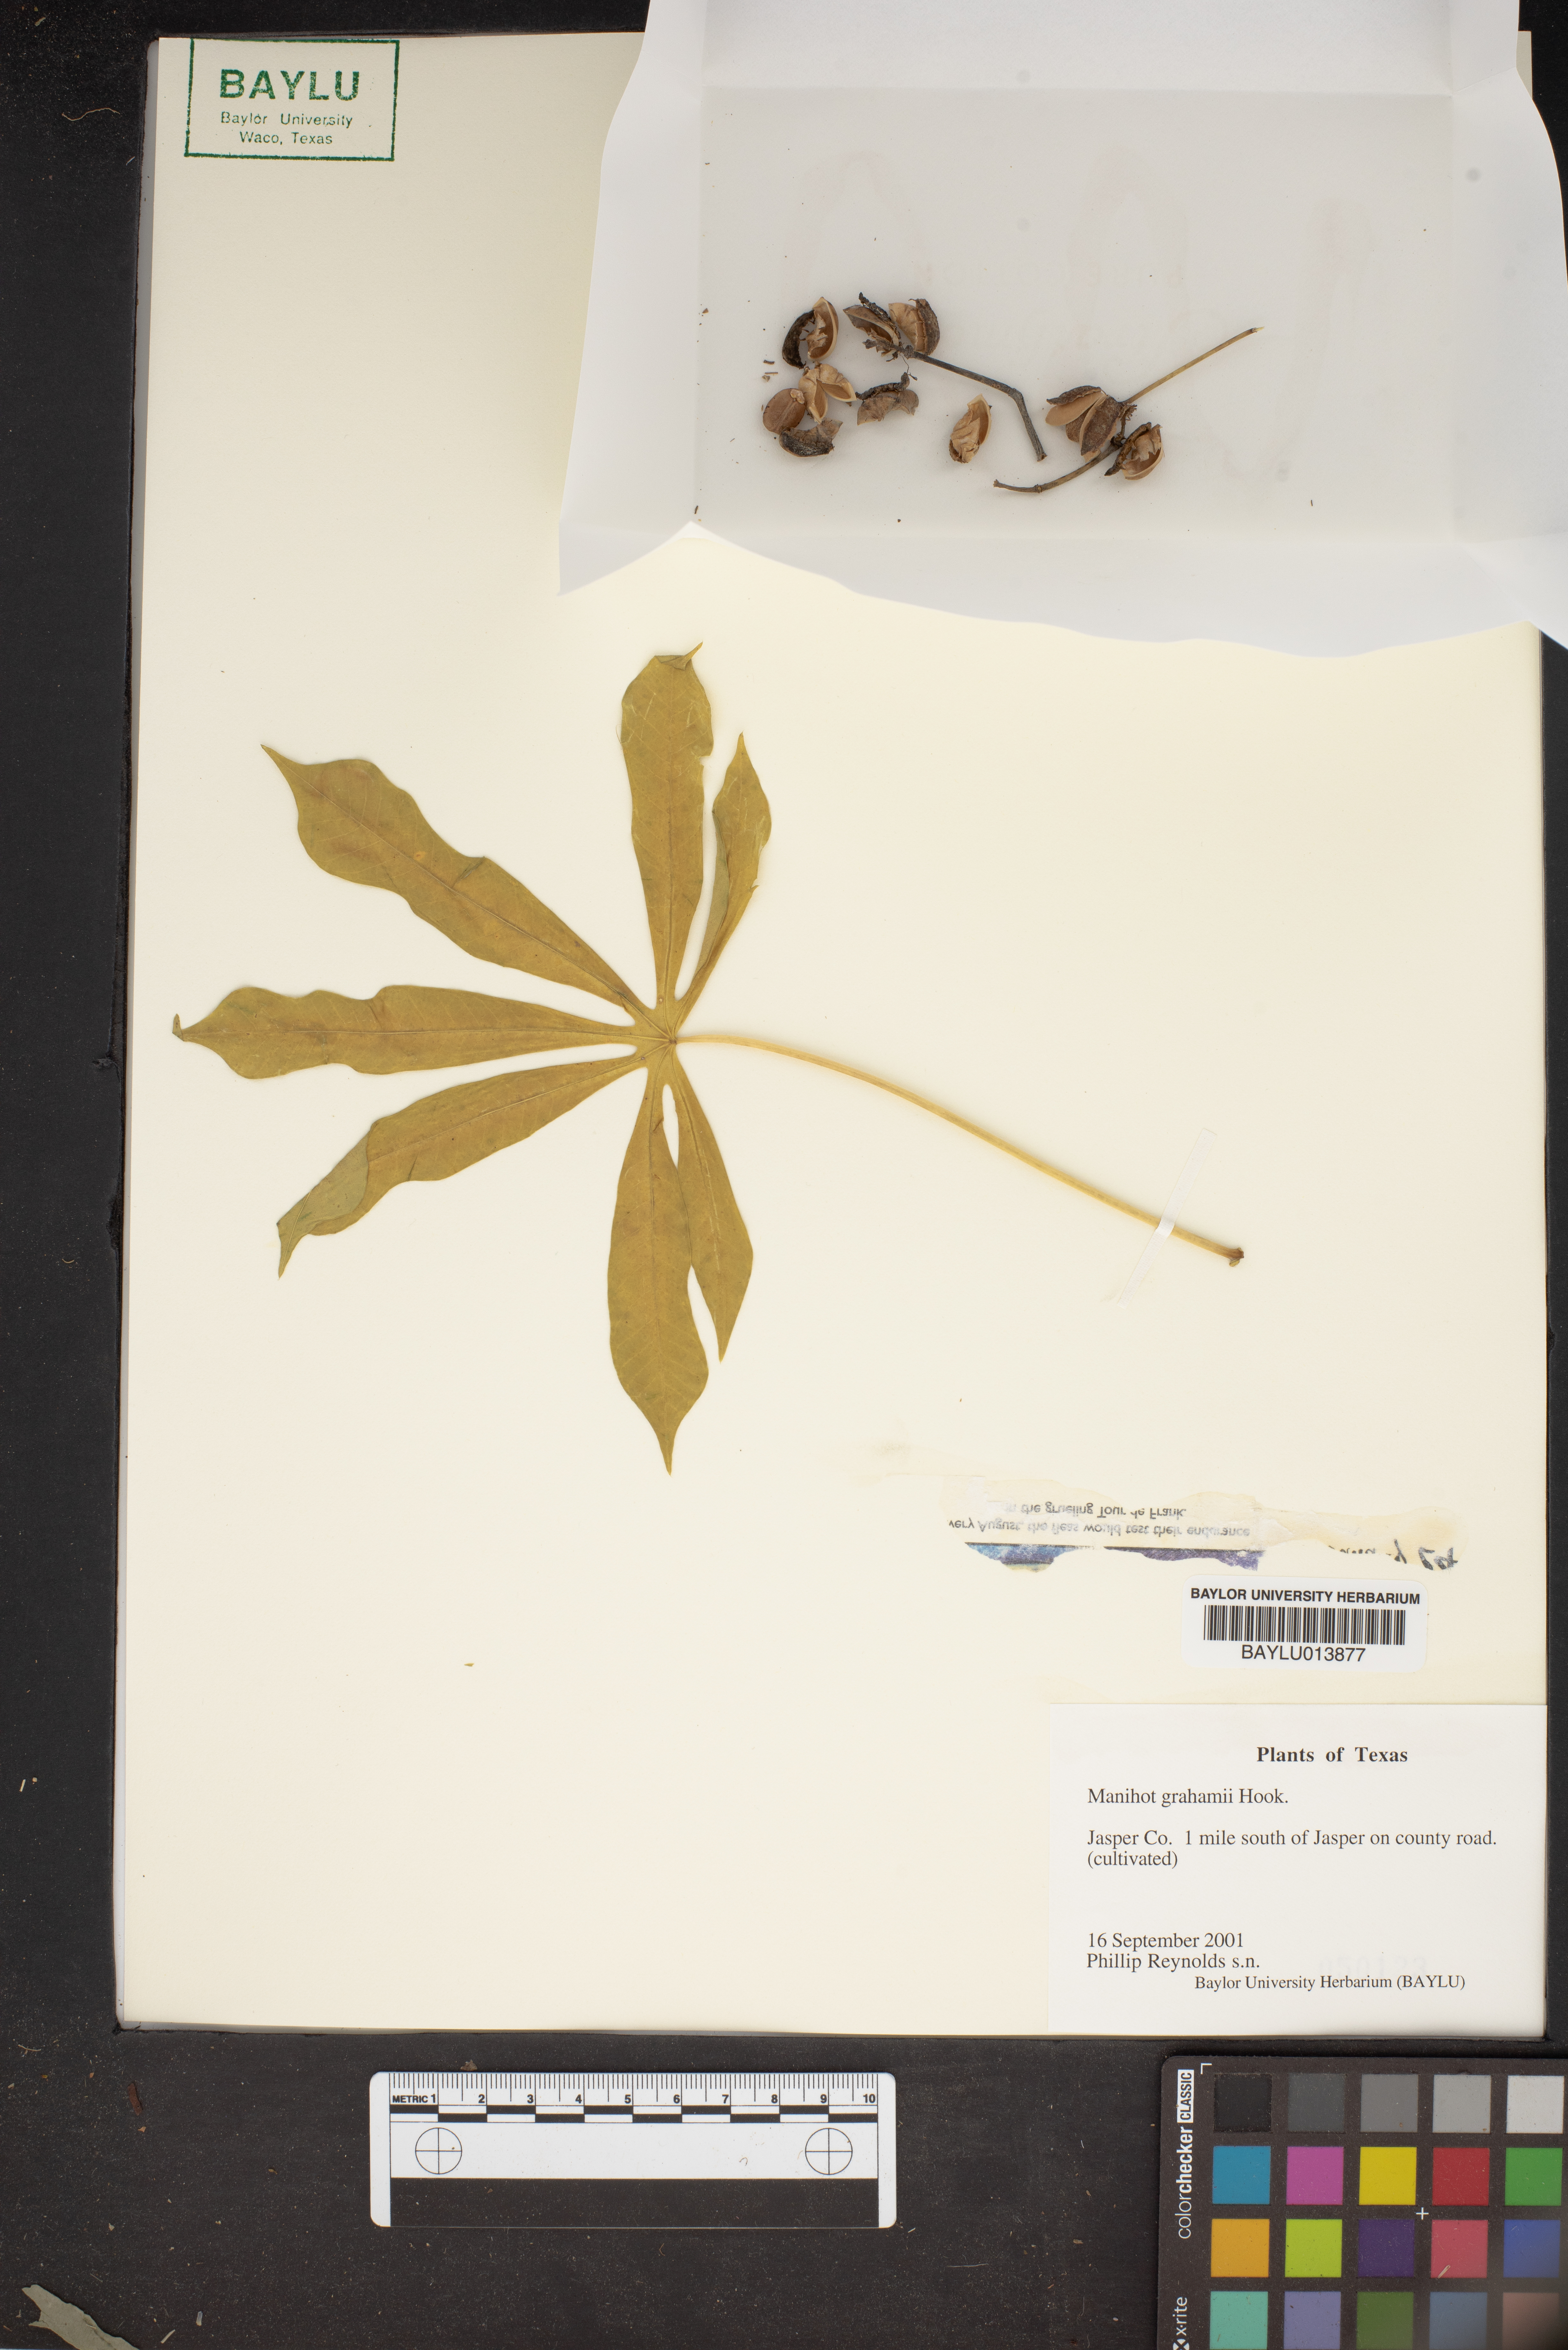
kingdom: Plantae
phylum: Tracheophyta
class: Magnoliopsida
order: Malpighiales
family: Euphorbiaceae
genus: Manihot
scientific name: Manihot grahamii
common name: Graham's manihot
